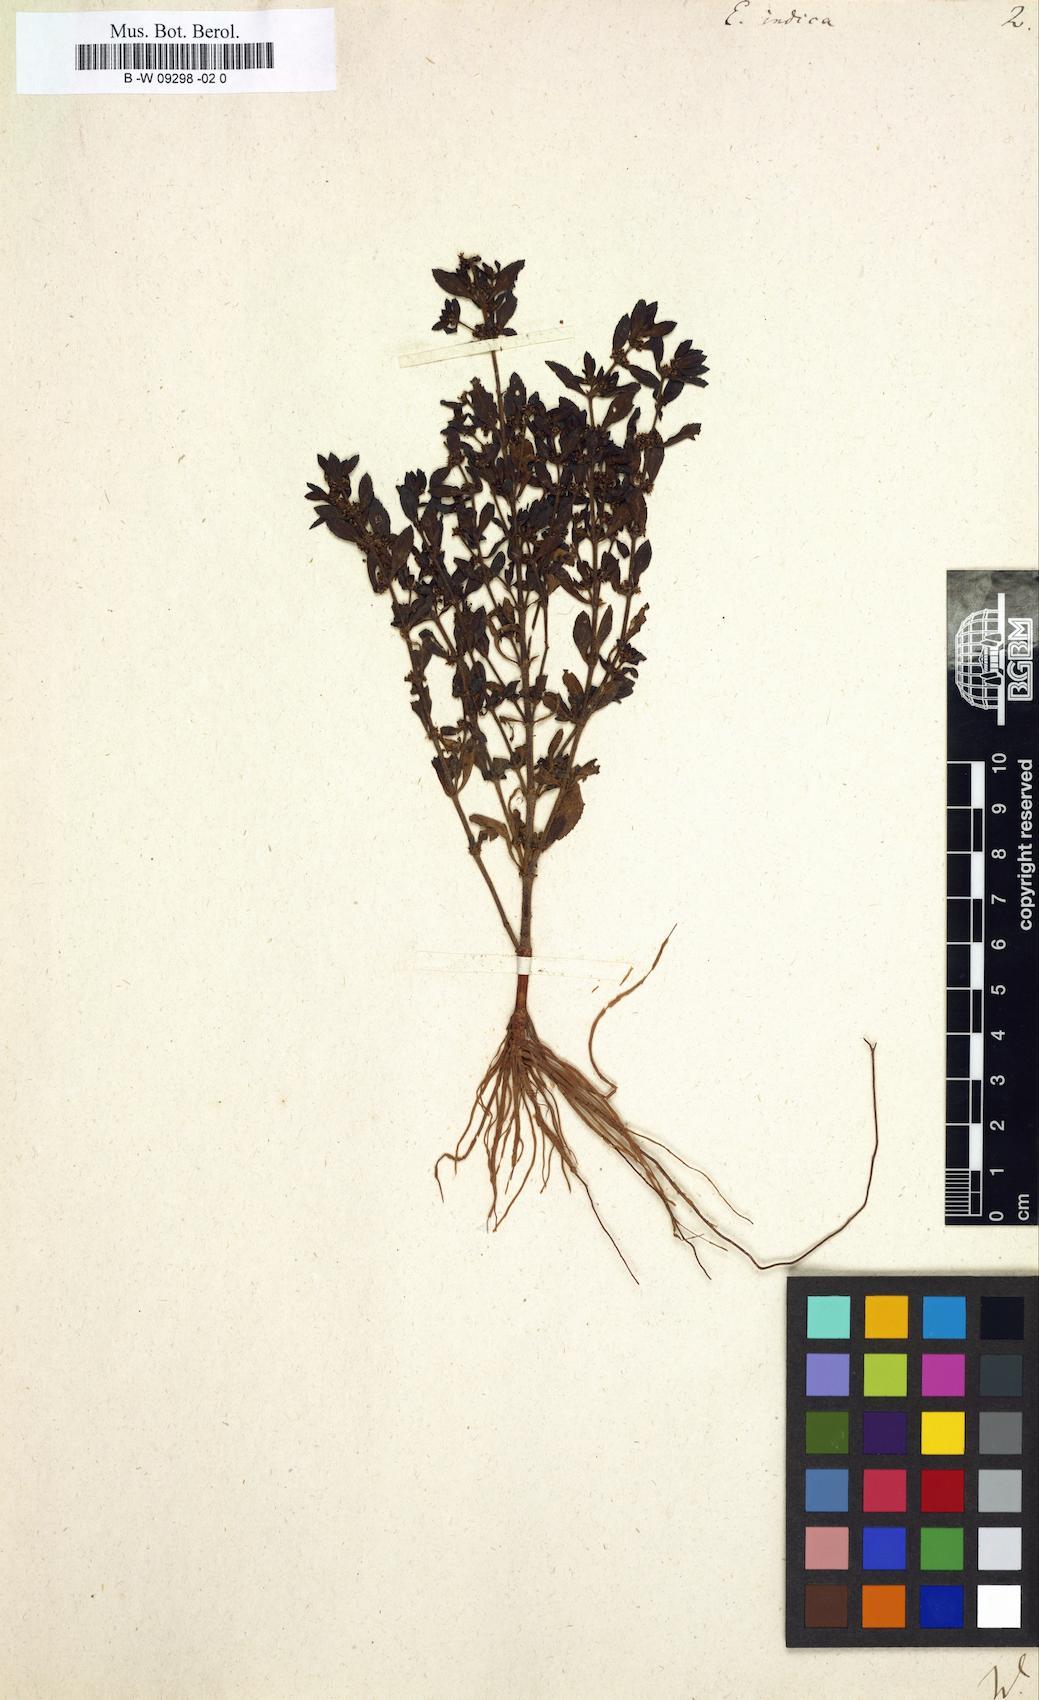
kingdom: Plantae
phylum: Tracheophyta
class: Magnoliopsida
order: Malpighiales
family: Euphorbiaceae
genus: Euphorbia
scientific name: Euphorbia indica
